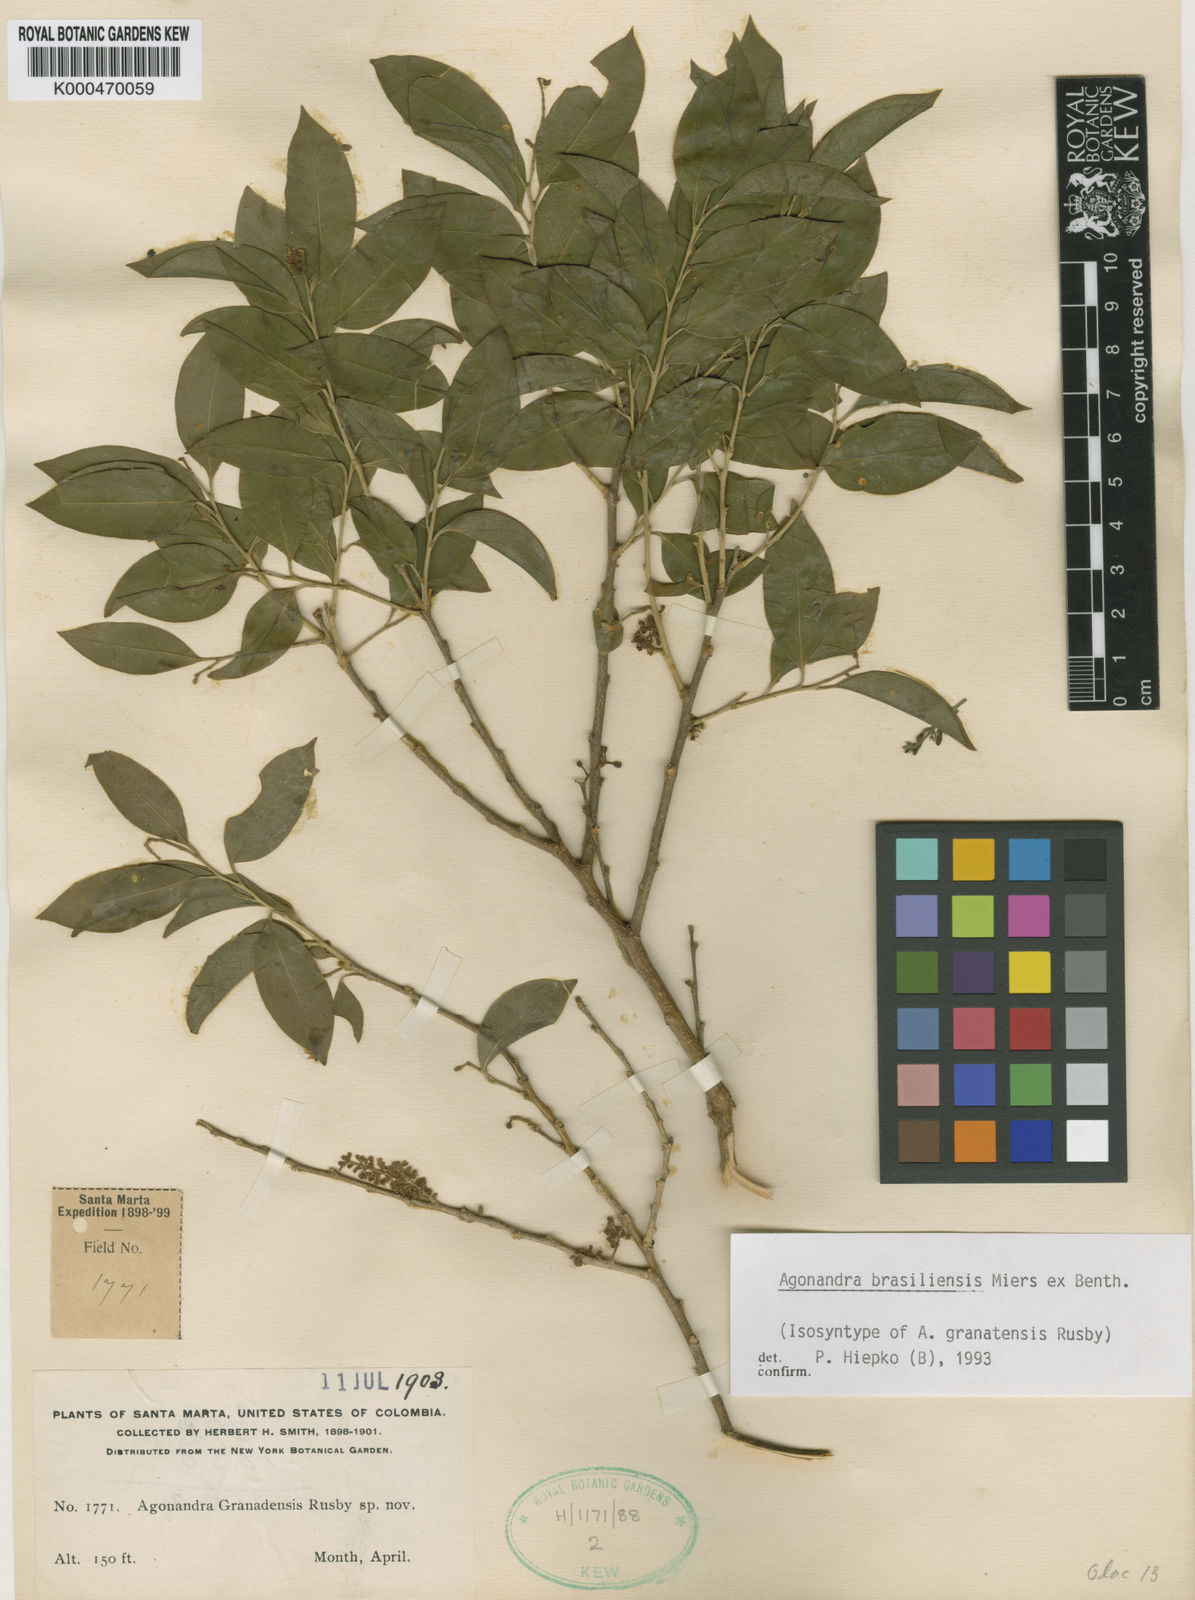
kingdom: Plantae
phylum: Tracheophyta
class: Magnoliopsida
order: Santalales
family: Opiliaceae
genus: Agonandra
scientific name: Agonandra brasiliensis
